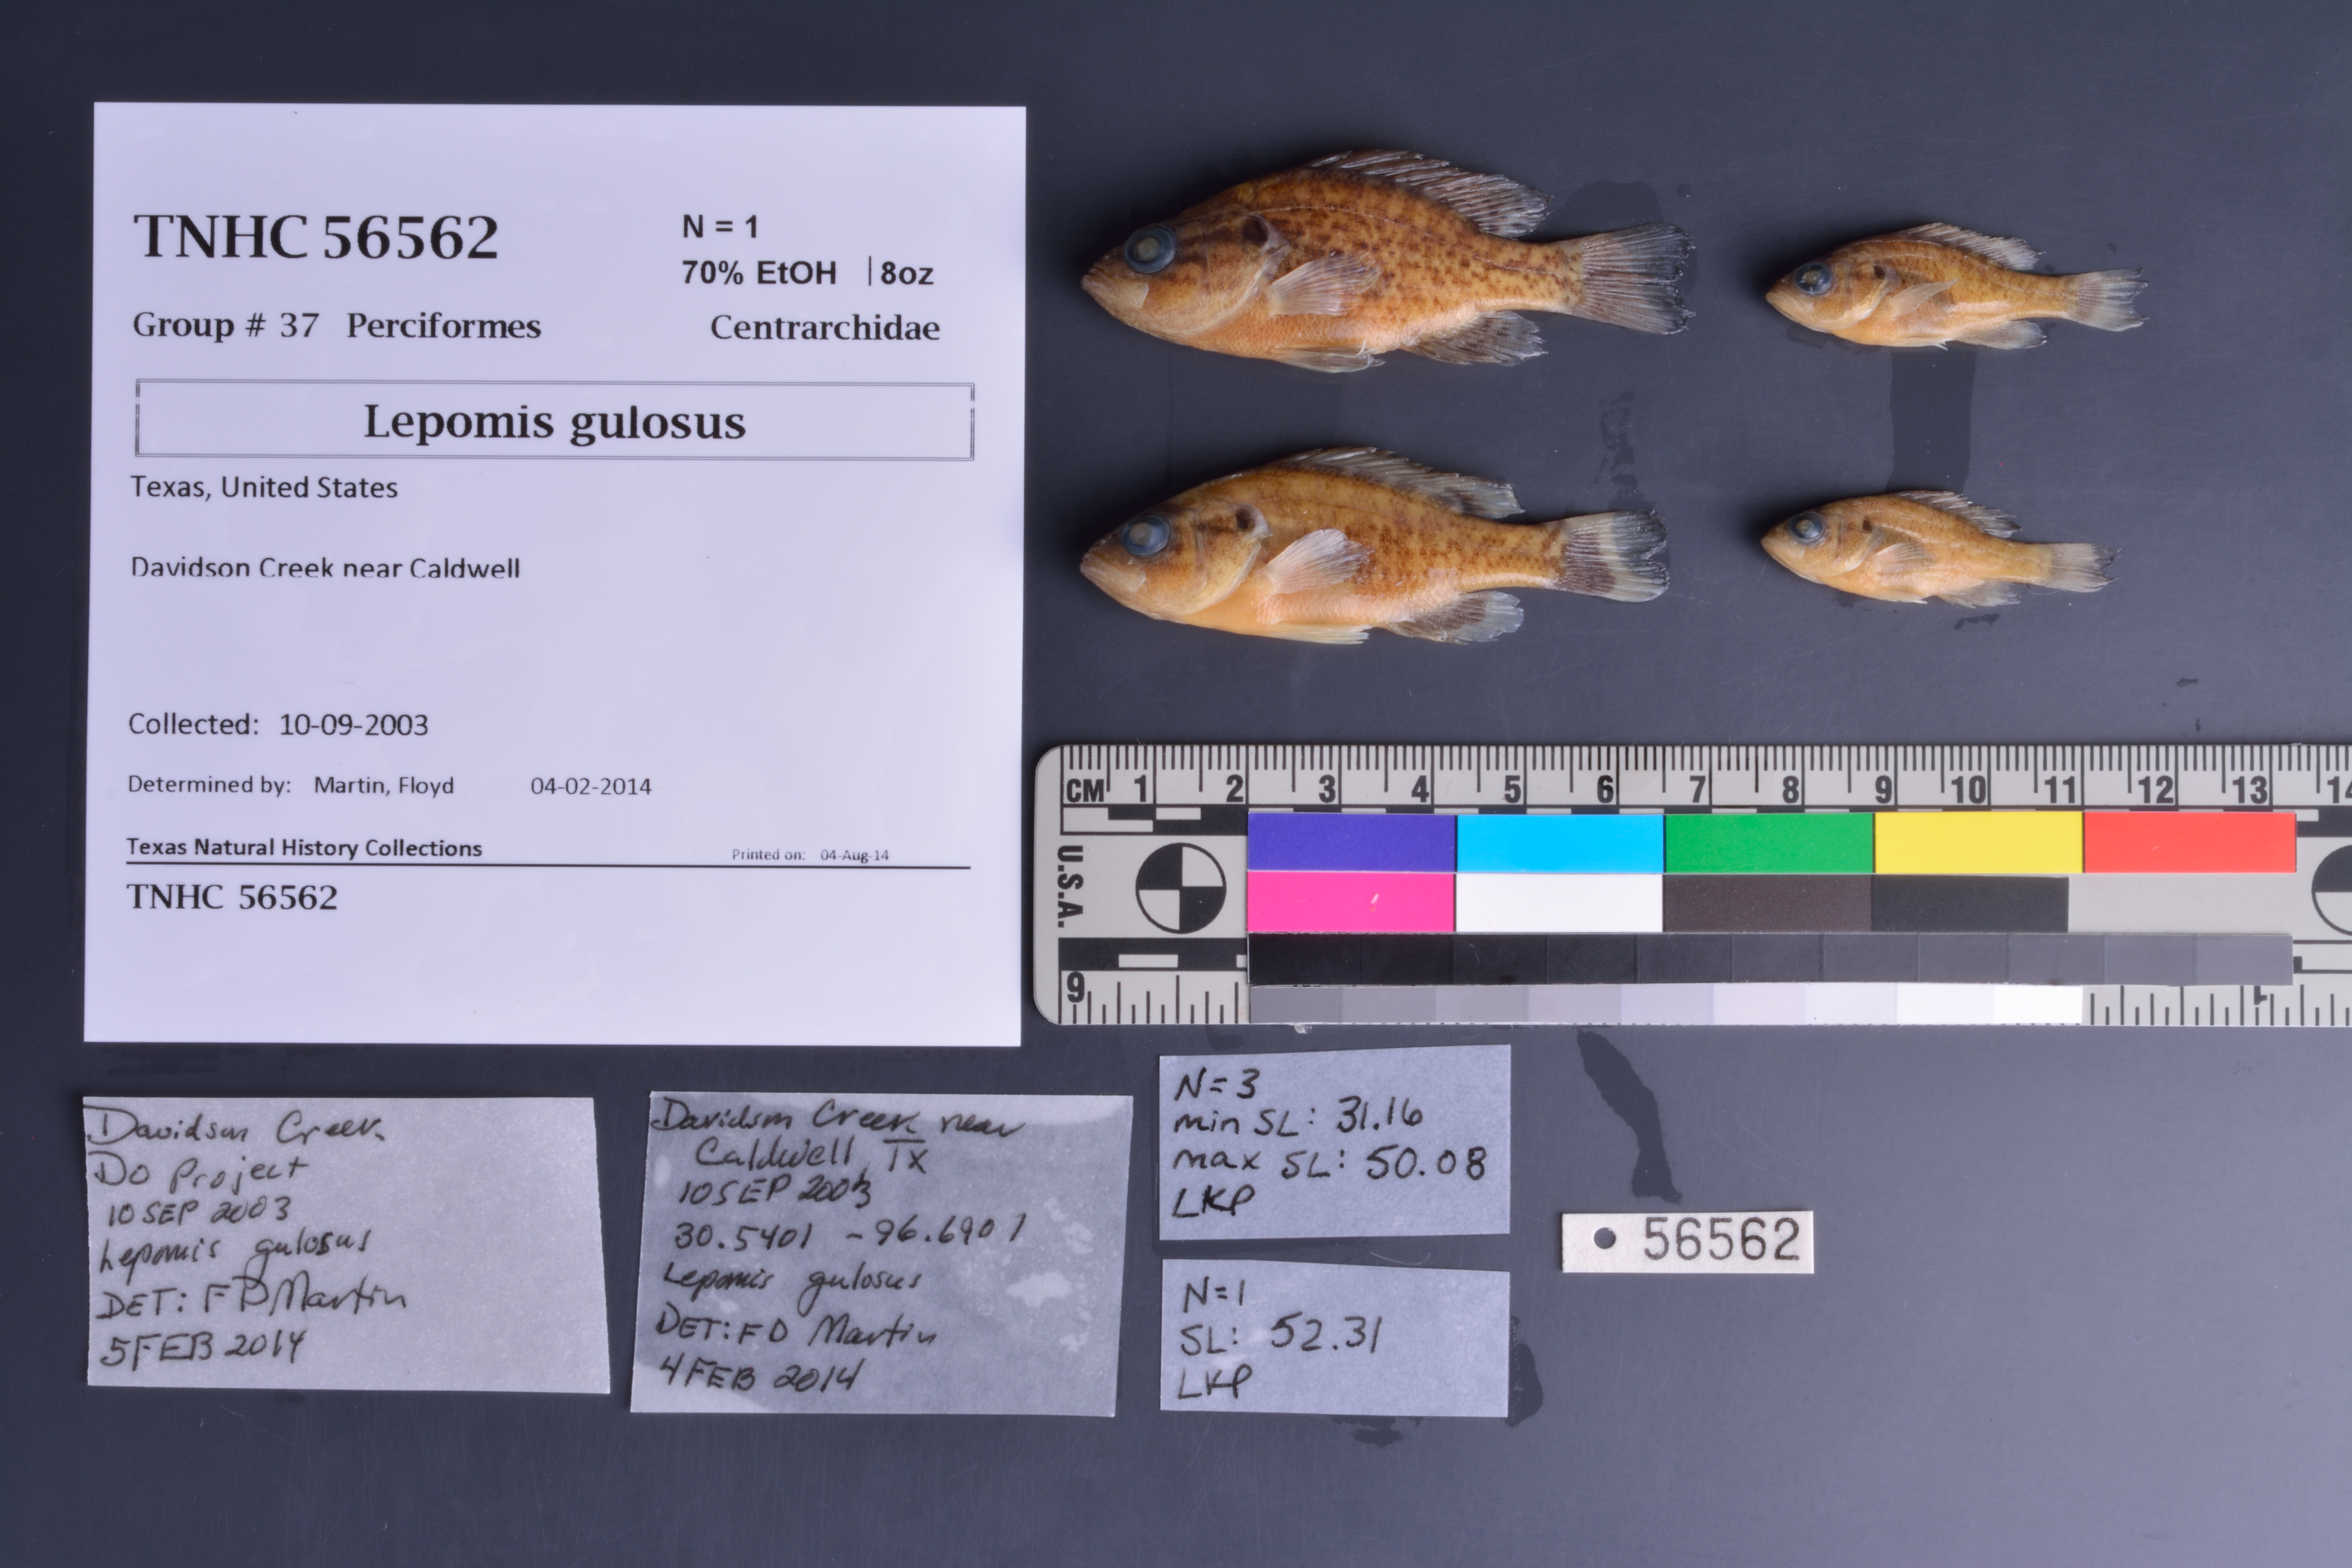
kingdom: Animalia
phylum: Chordata
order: Perciformes
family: Centrarchidae
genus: Lepomis
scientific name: Lepomis gulosus
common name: Warmouth
